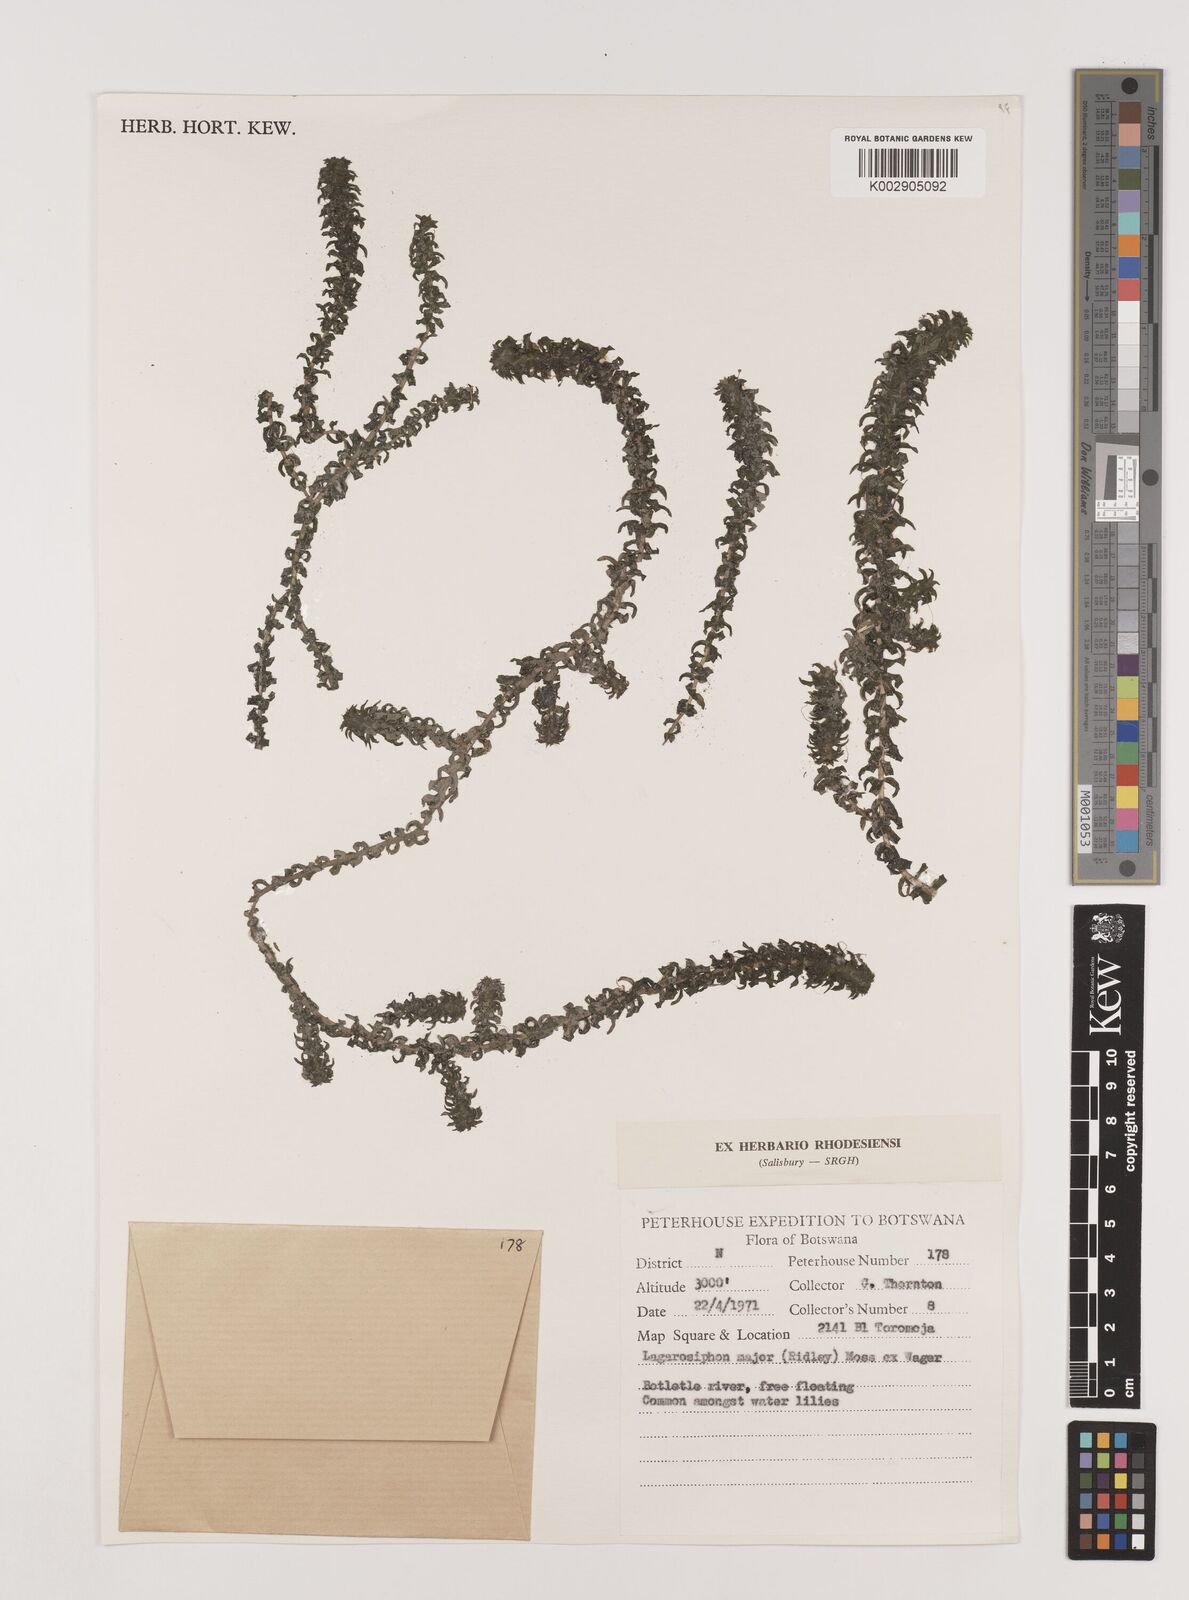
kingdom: Plantae
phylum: Tracheophyta
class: Liliopsida
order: Alismatales
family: Hydrocharitaceae
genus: Lagarosiphon
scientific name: Lagarosiphon major
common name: Curly waterweed
